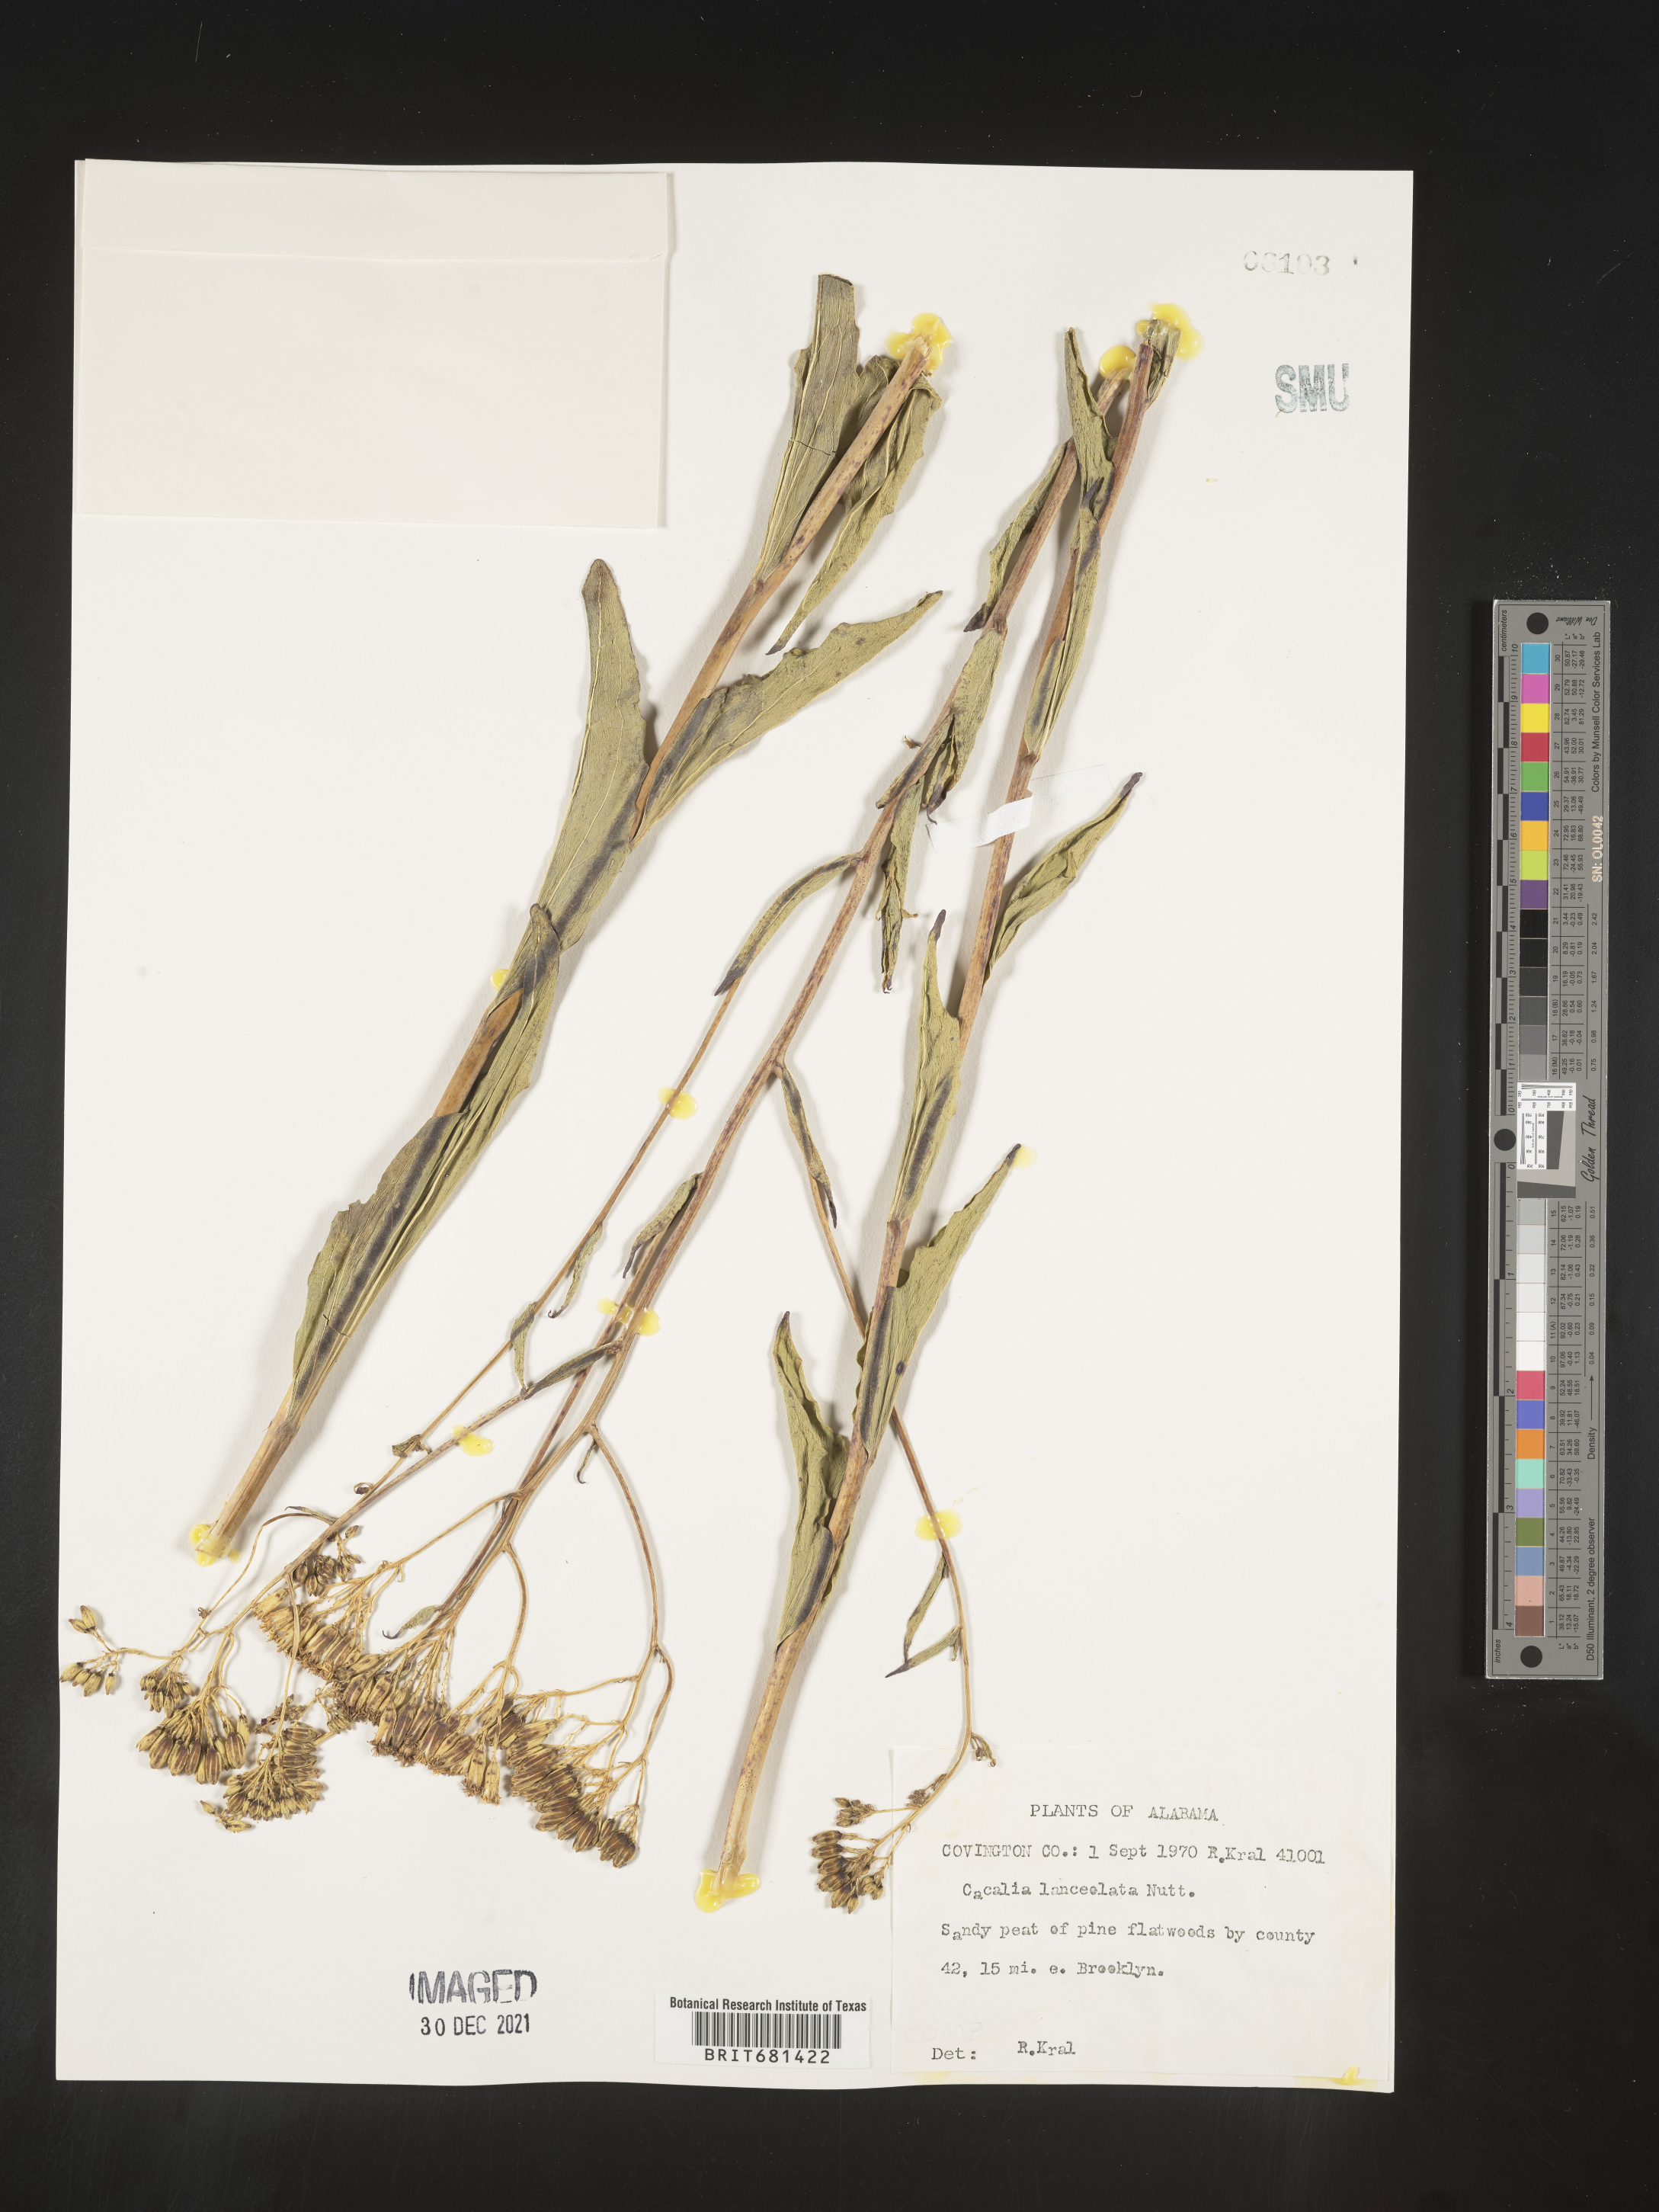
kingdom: Plantae
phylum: Tracheophyta
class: Magnoliopsida
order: Asterales
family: Asteraceae
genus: Arnoglossum
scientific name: Arnoglossum ovatum
